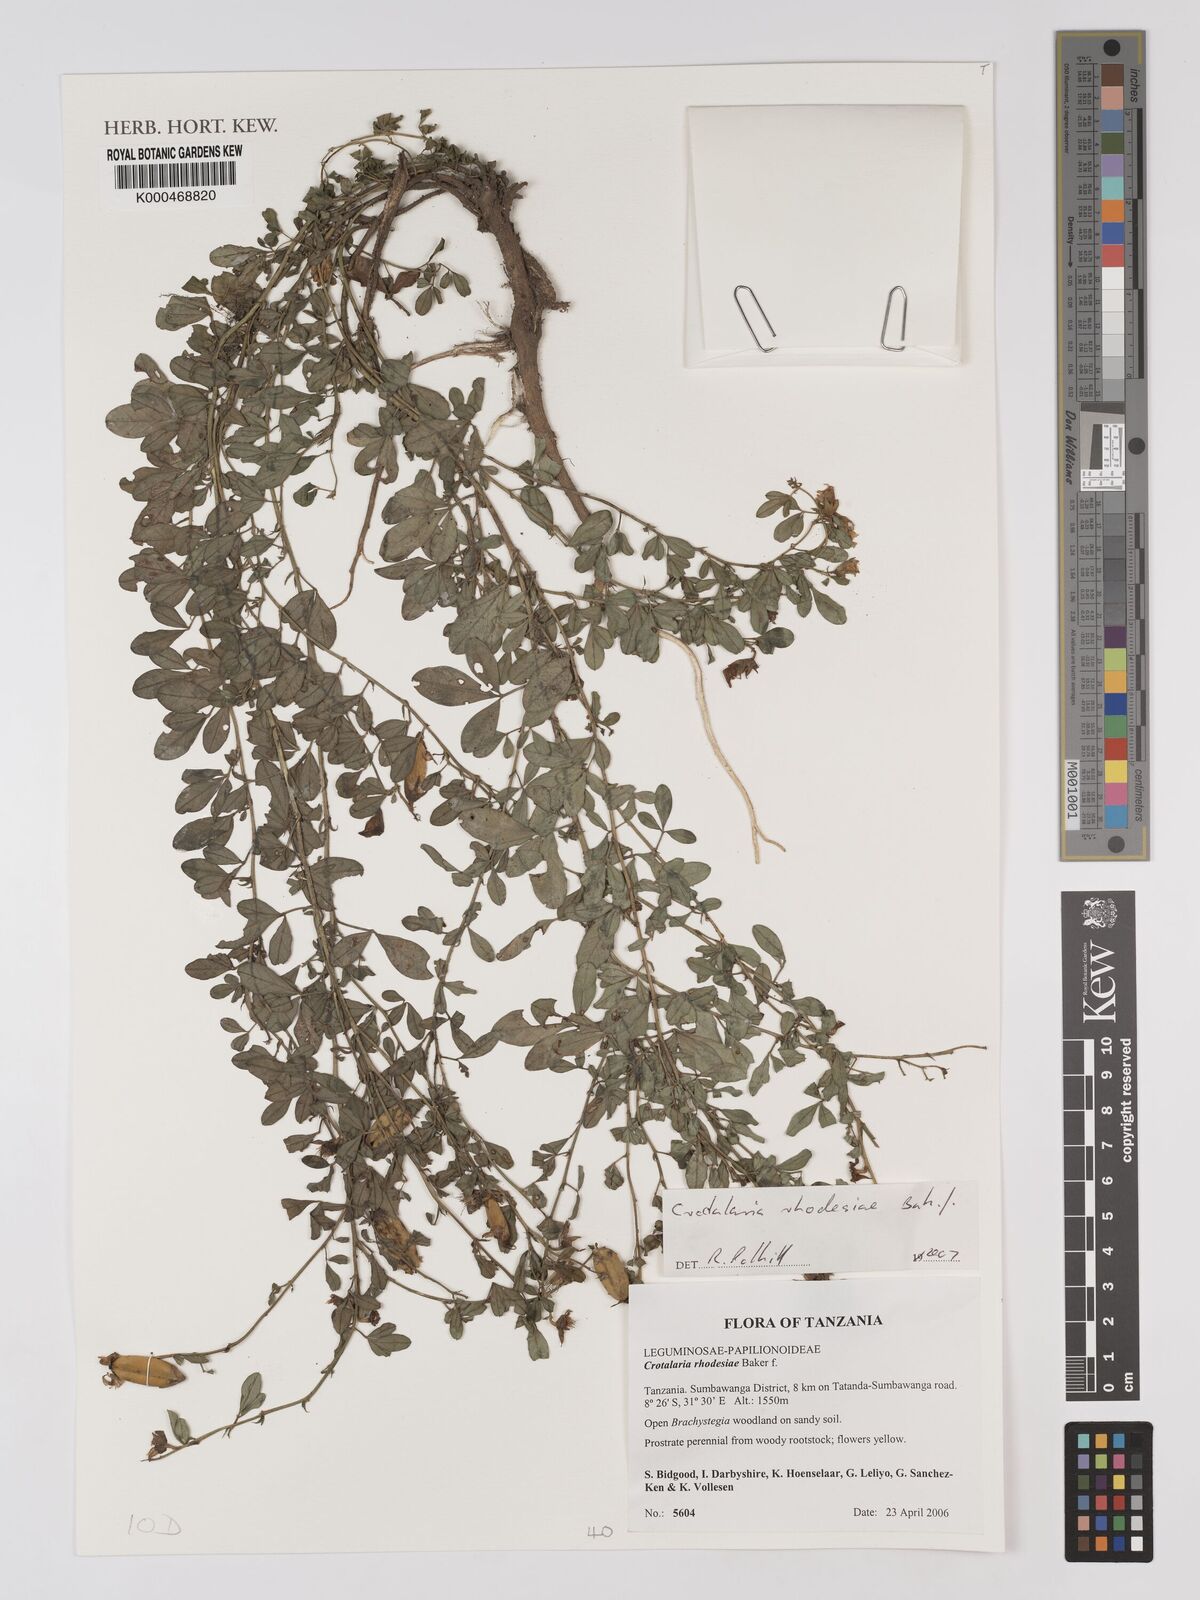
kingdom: Plantae
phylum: Tracheophyta
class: Magnoliopsida
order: Fabales
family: Fabaceae
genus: Crotalaria
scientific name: Crotalaria rhodesiae
